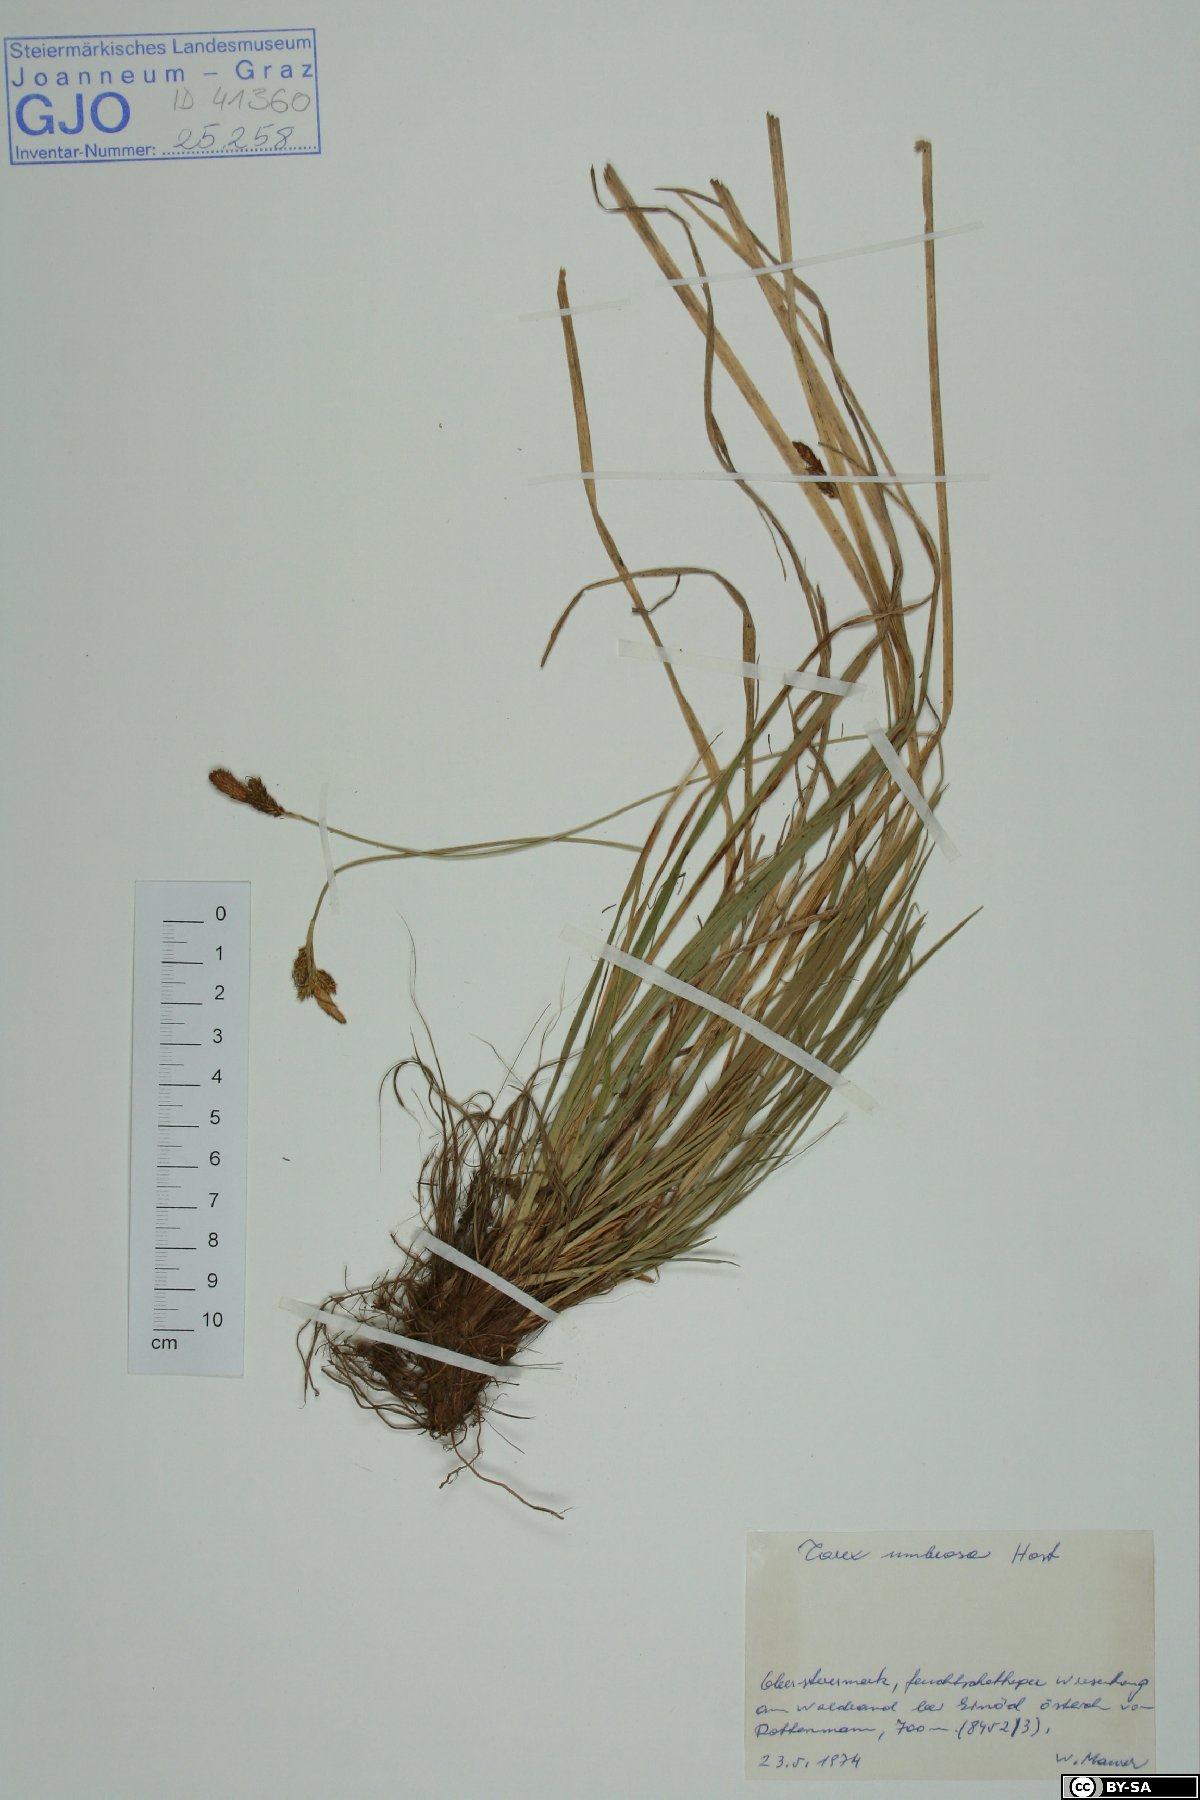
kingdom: Plantae
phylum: Tracheophyta
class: Liliopsida
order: Poales
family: Cyperaceae
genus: Carex
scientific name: Carex umbrosa
